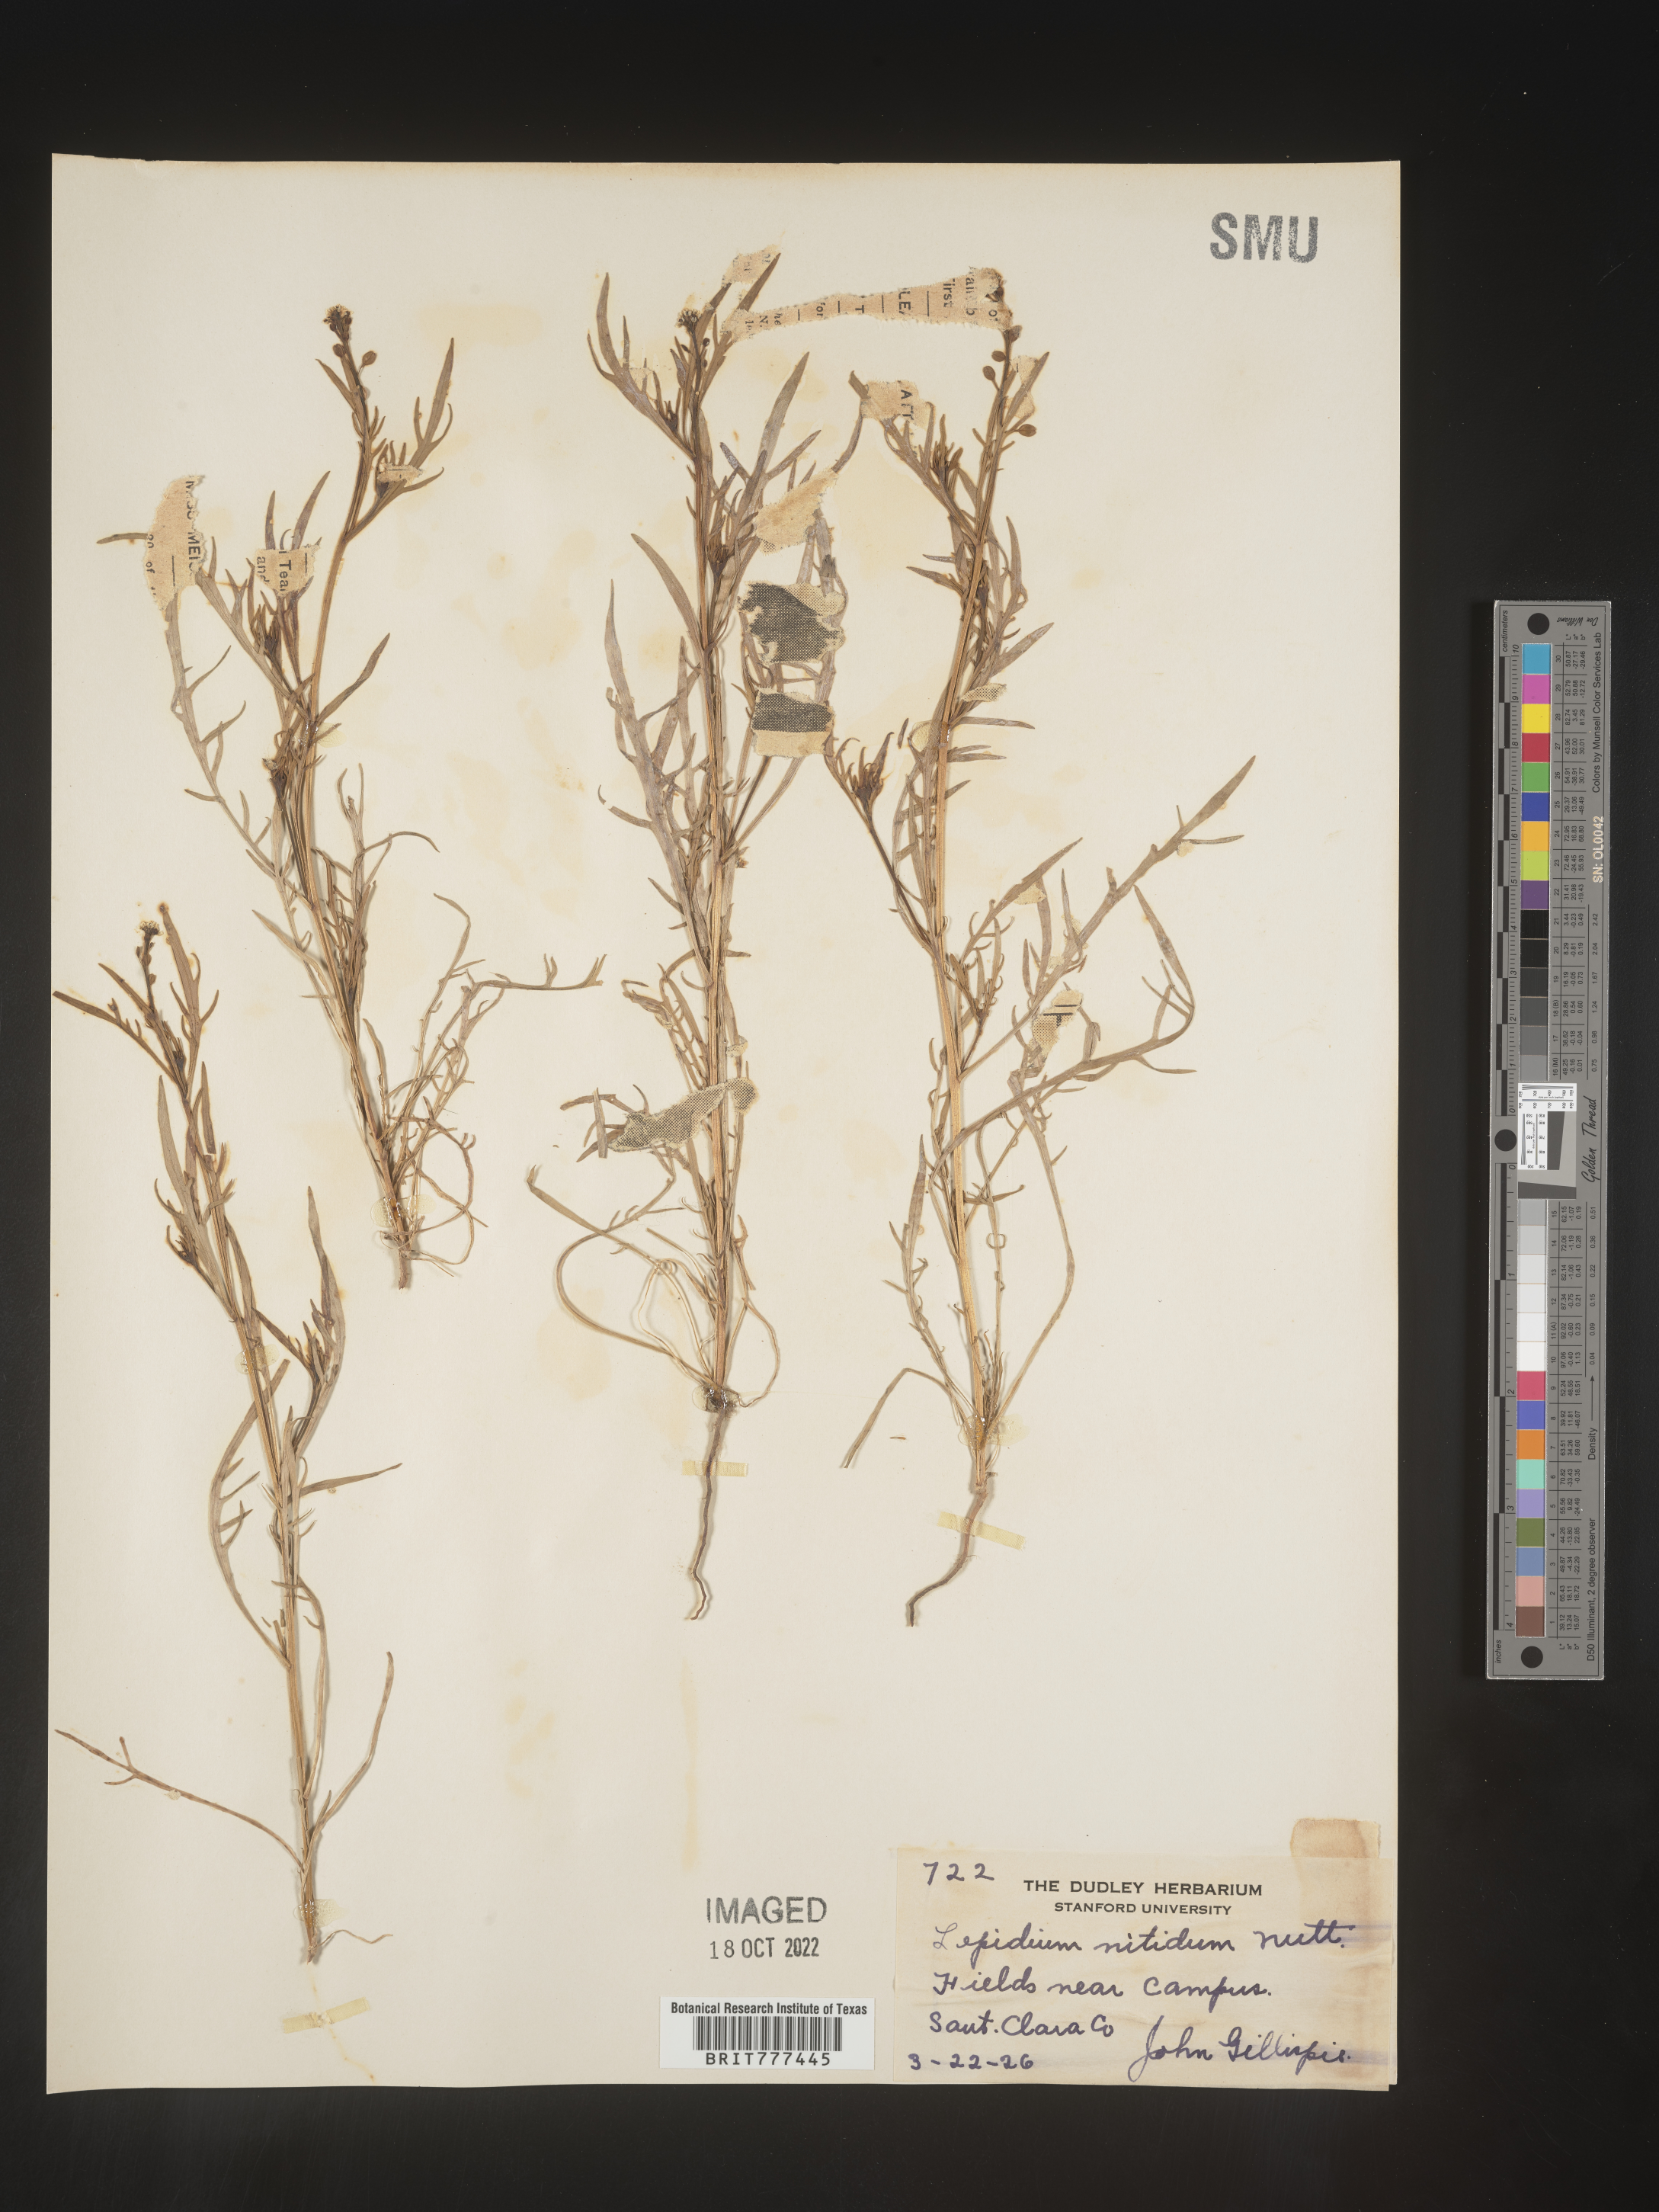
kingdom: Plantae
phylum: Tracheophyta
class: Magnoliopsida
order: Brassicales
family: Brassicaceae
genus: Lepidium
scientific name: Lepidium nitidum
